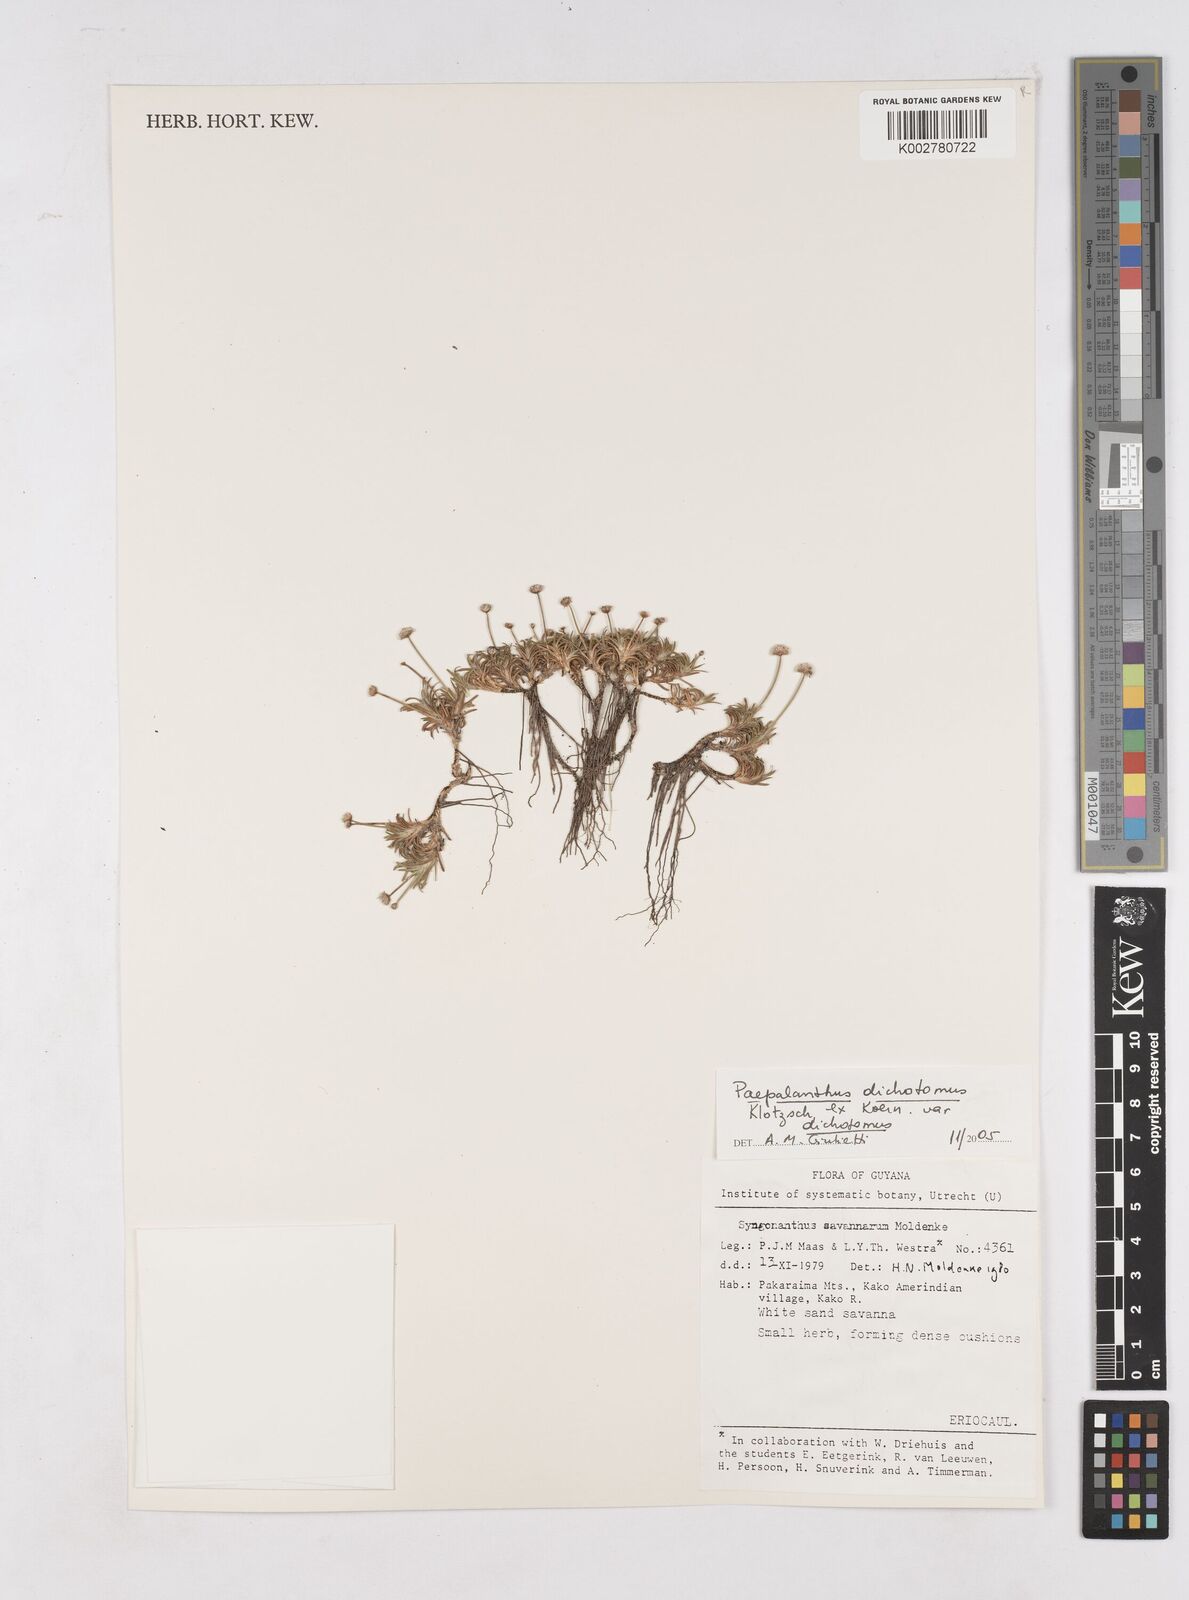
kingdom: Plantae
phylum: Tracheophyta
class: Liliopsida
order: Poales
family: Eriocaulaceae
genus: Paepalanthus
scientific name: Paepalanthus dichotomus
